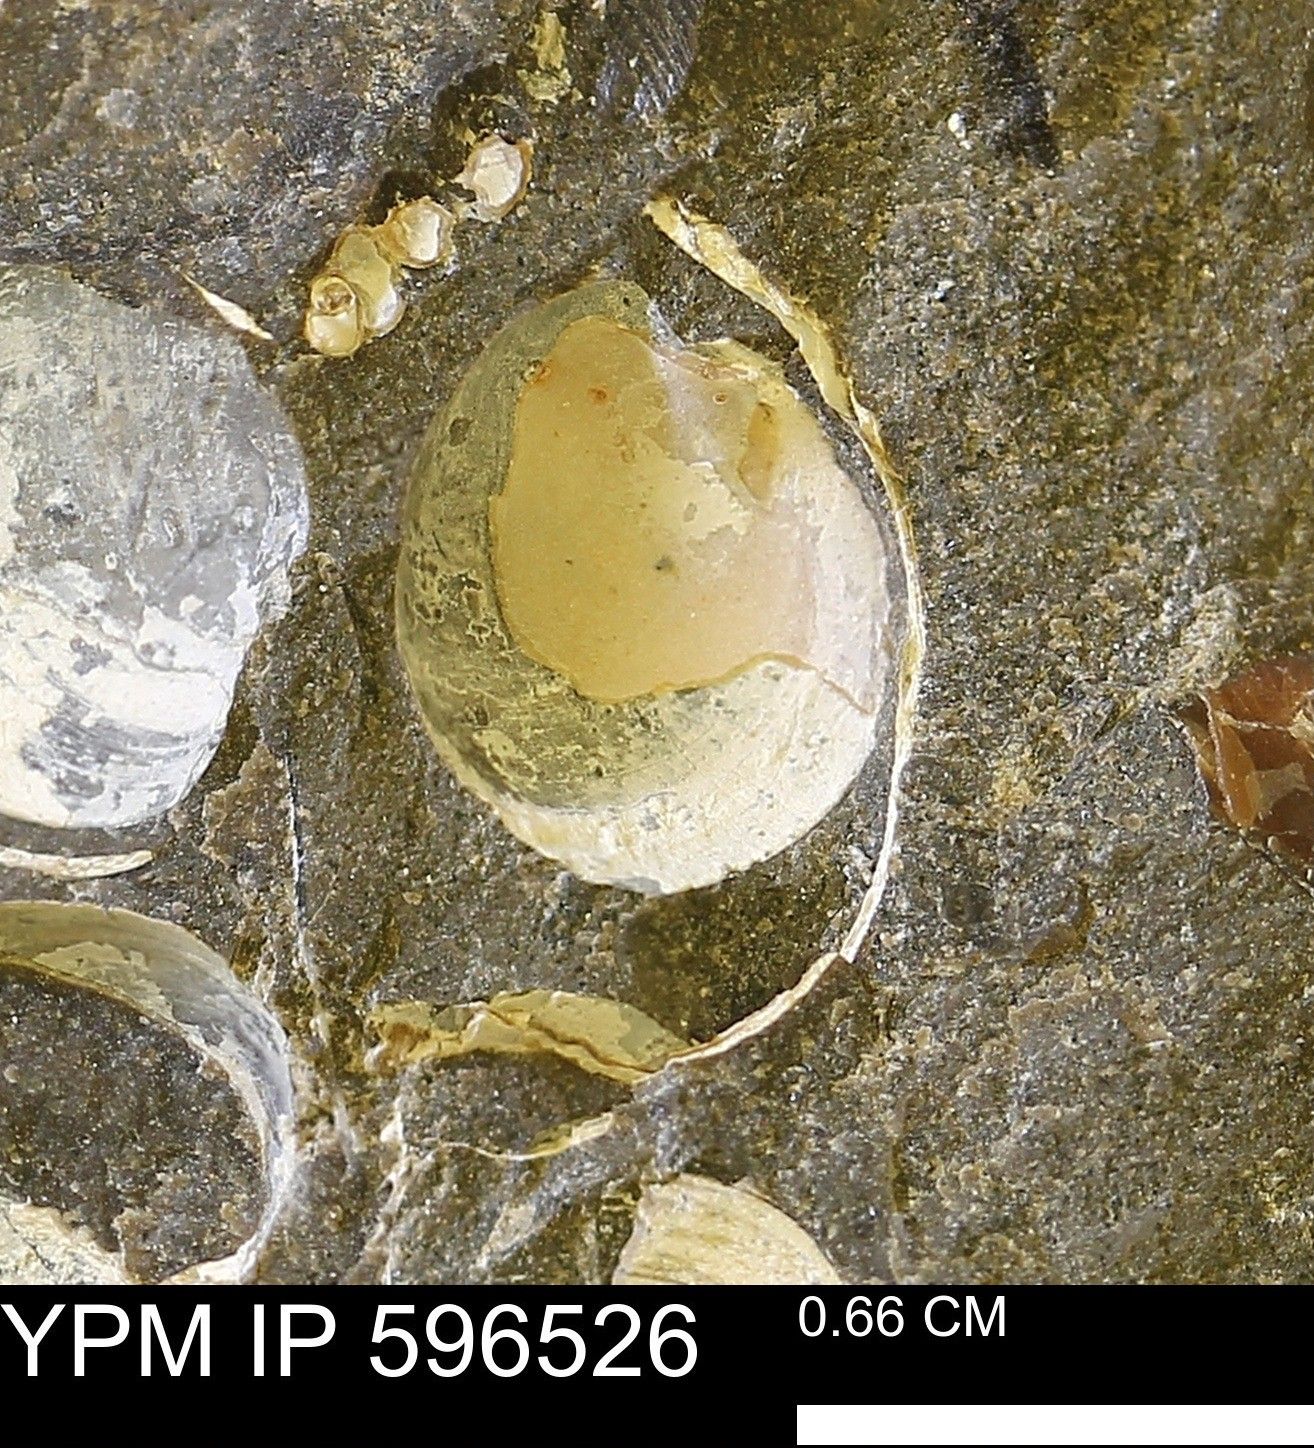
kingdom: Animalia
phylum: Mollusca
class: Bivalvia
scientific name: Bivalvia
